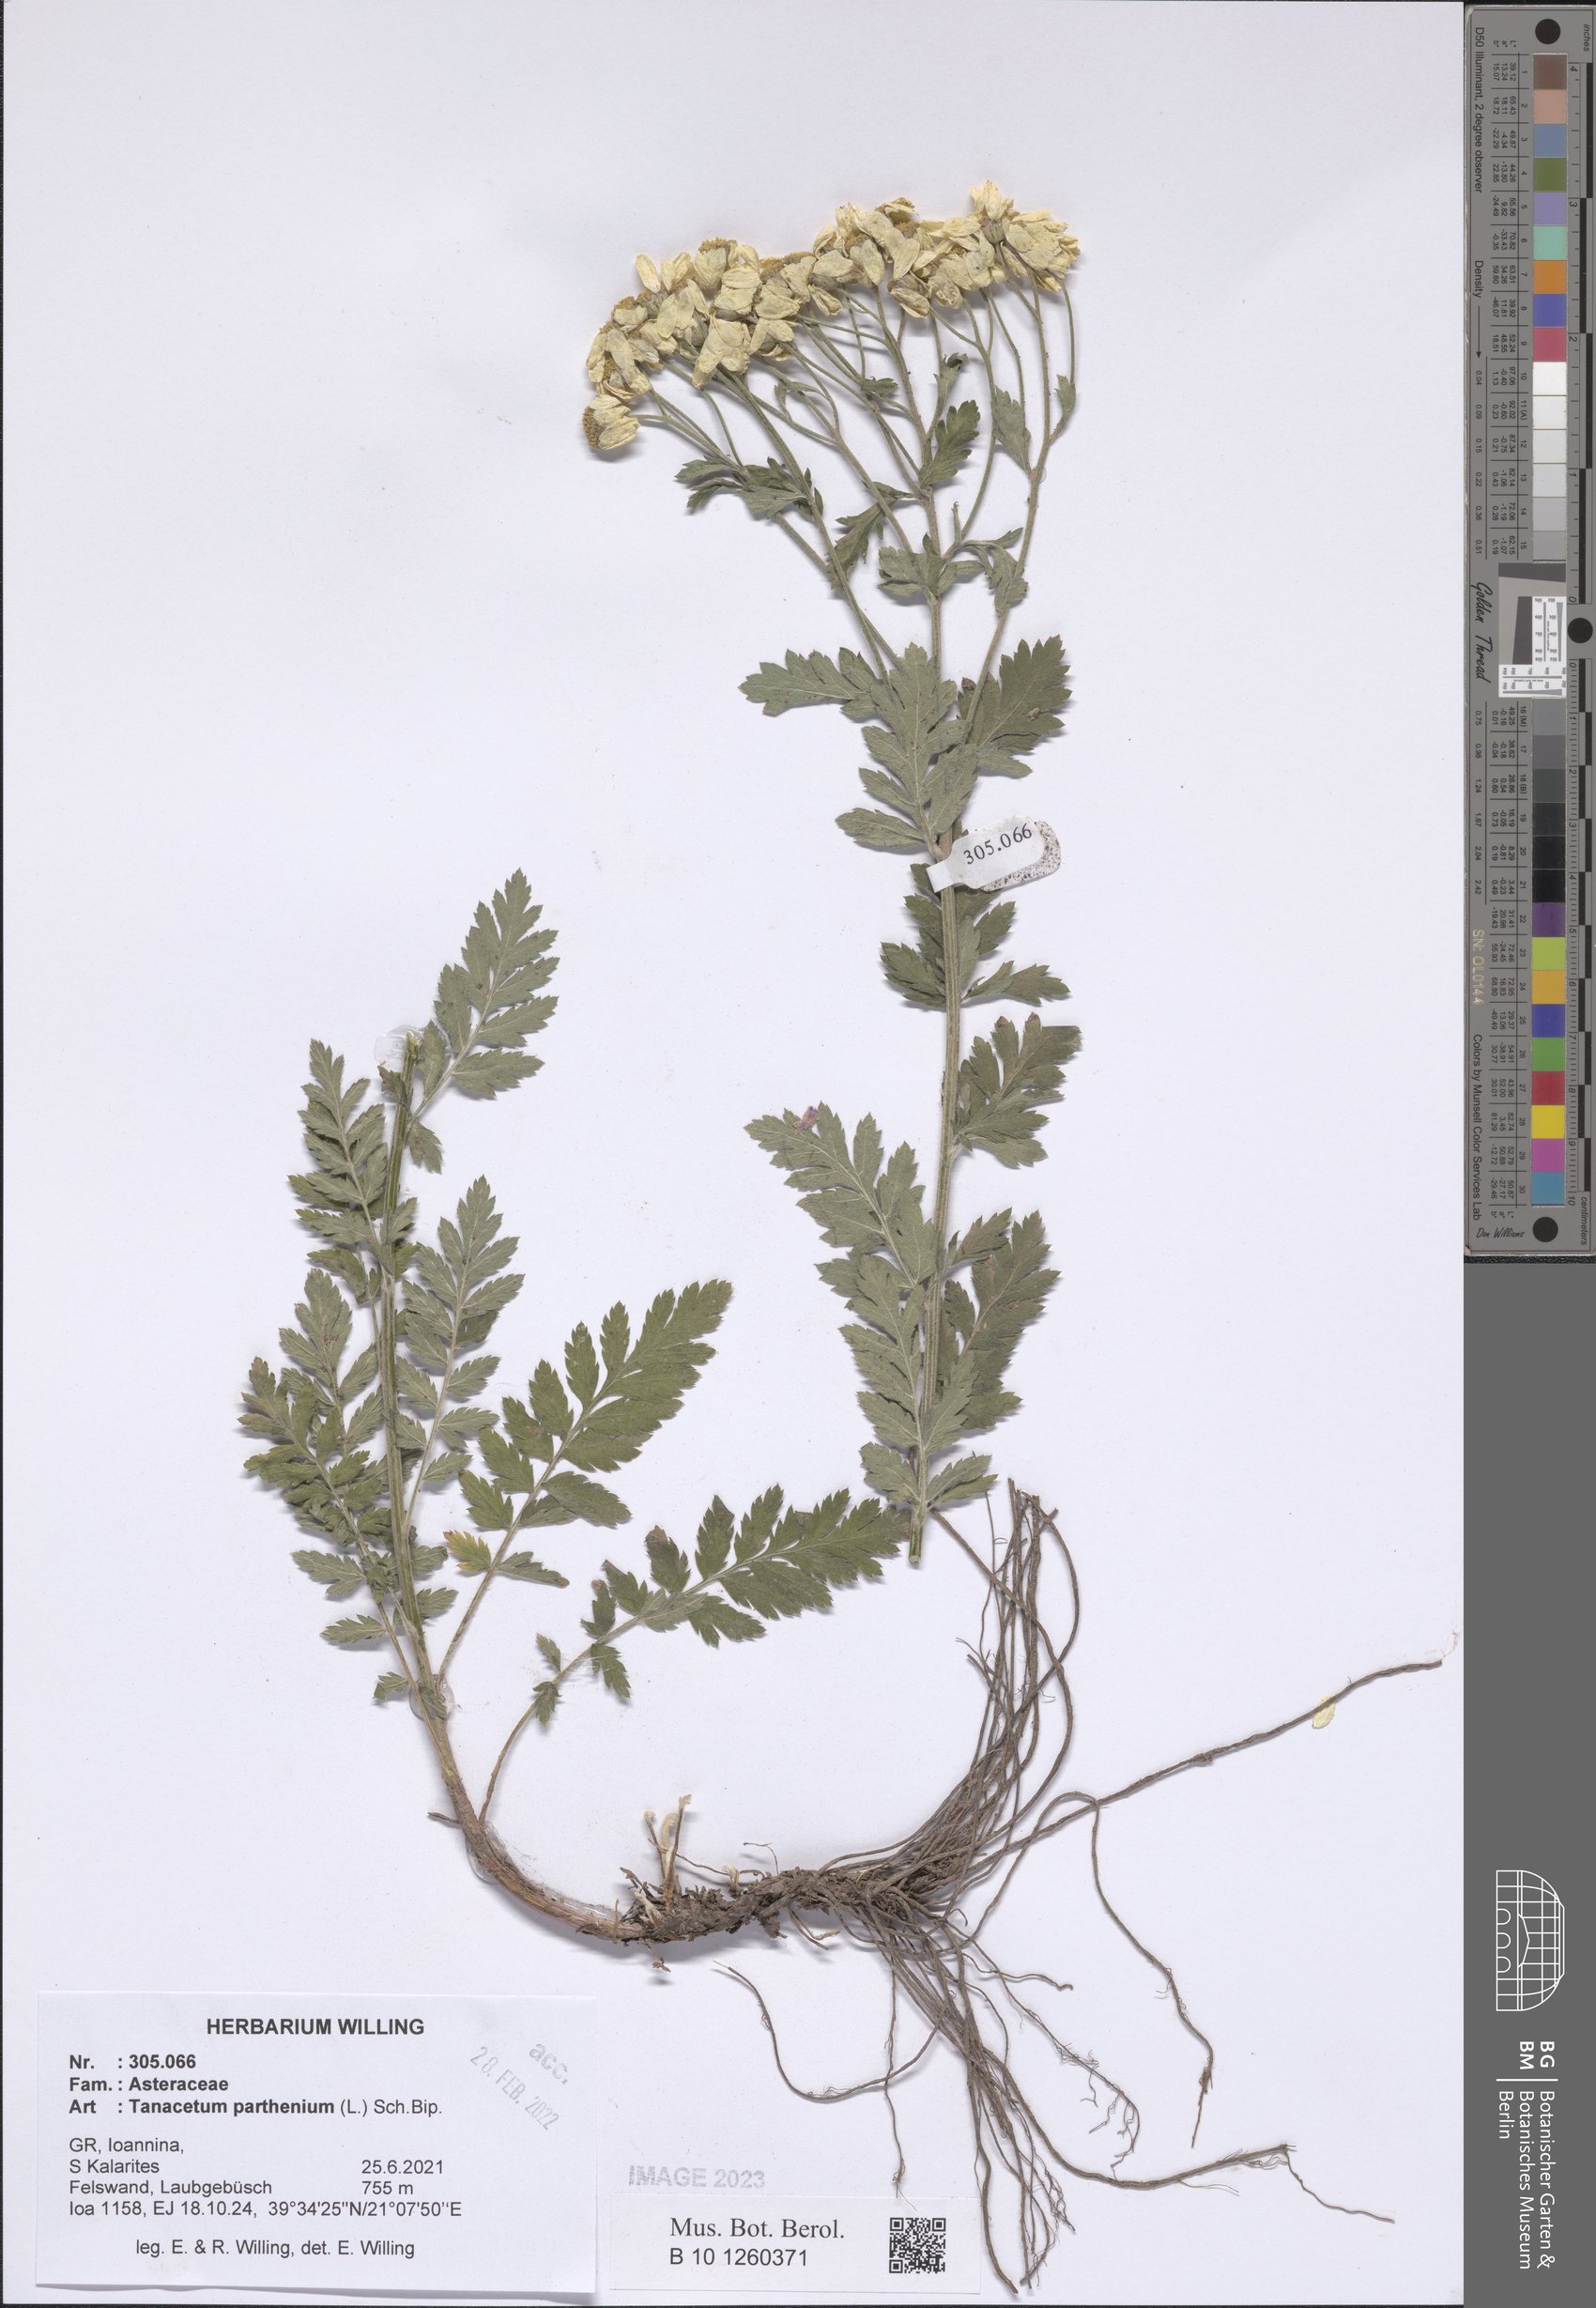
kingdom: Plantae
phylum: Tracheophyta
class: Magnoliopsida
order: Asterales
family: Asteraceae
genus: Tanacetum
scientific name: Tanacetum parthenium
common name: Feverfew
